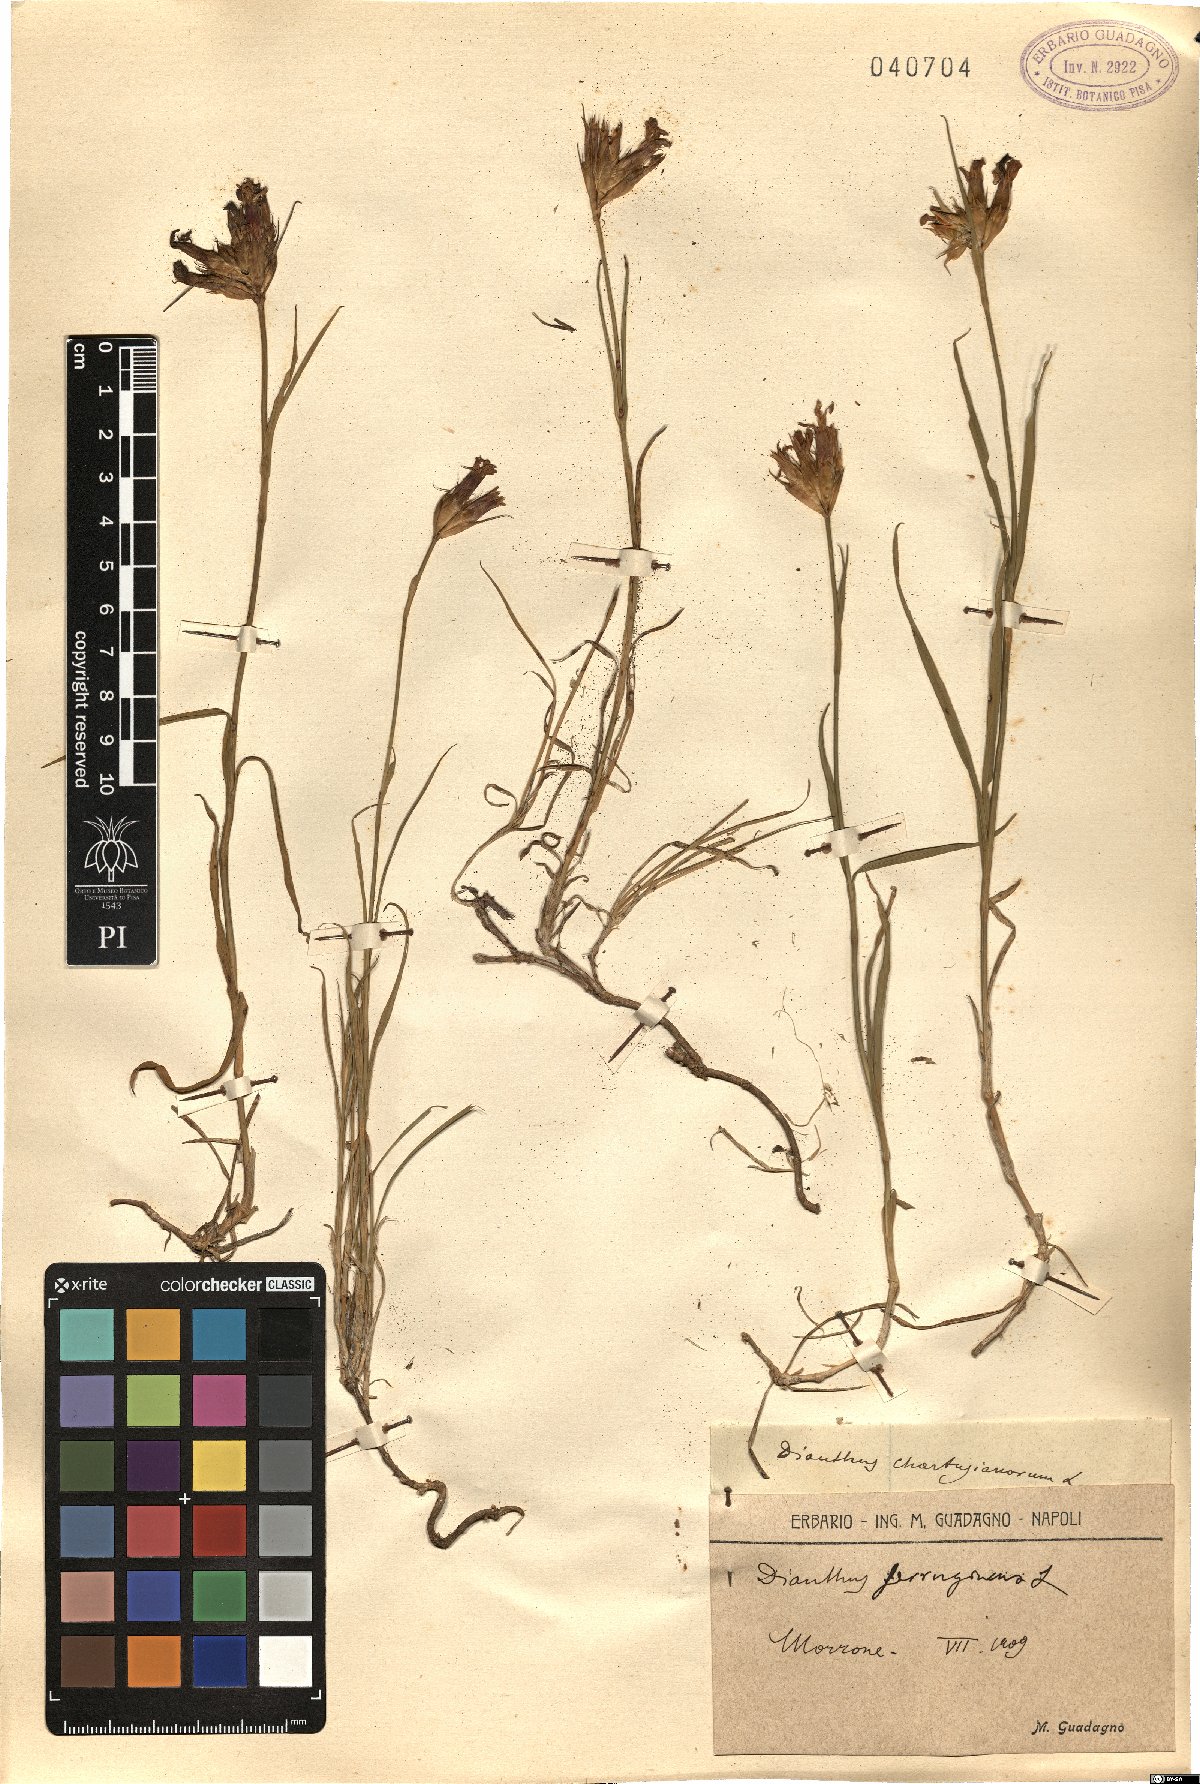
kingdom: Plantae
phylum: Tracheophyta
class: Magnoliopsida
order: Caryophyllales
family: Caryophyllaceae
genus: Dianthus
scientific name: Dianthus carthusianorum
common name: Carthusian pink
